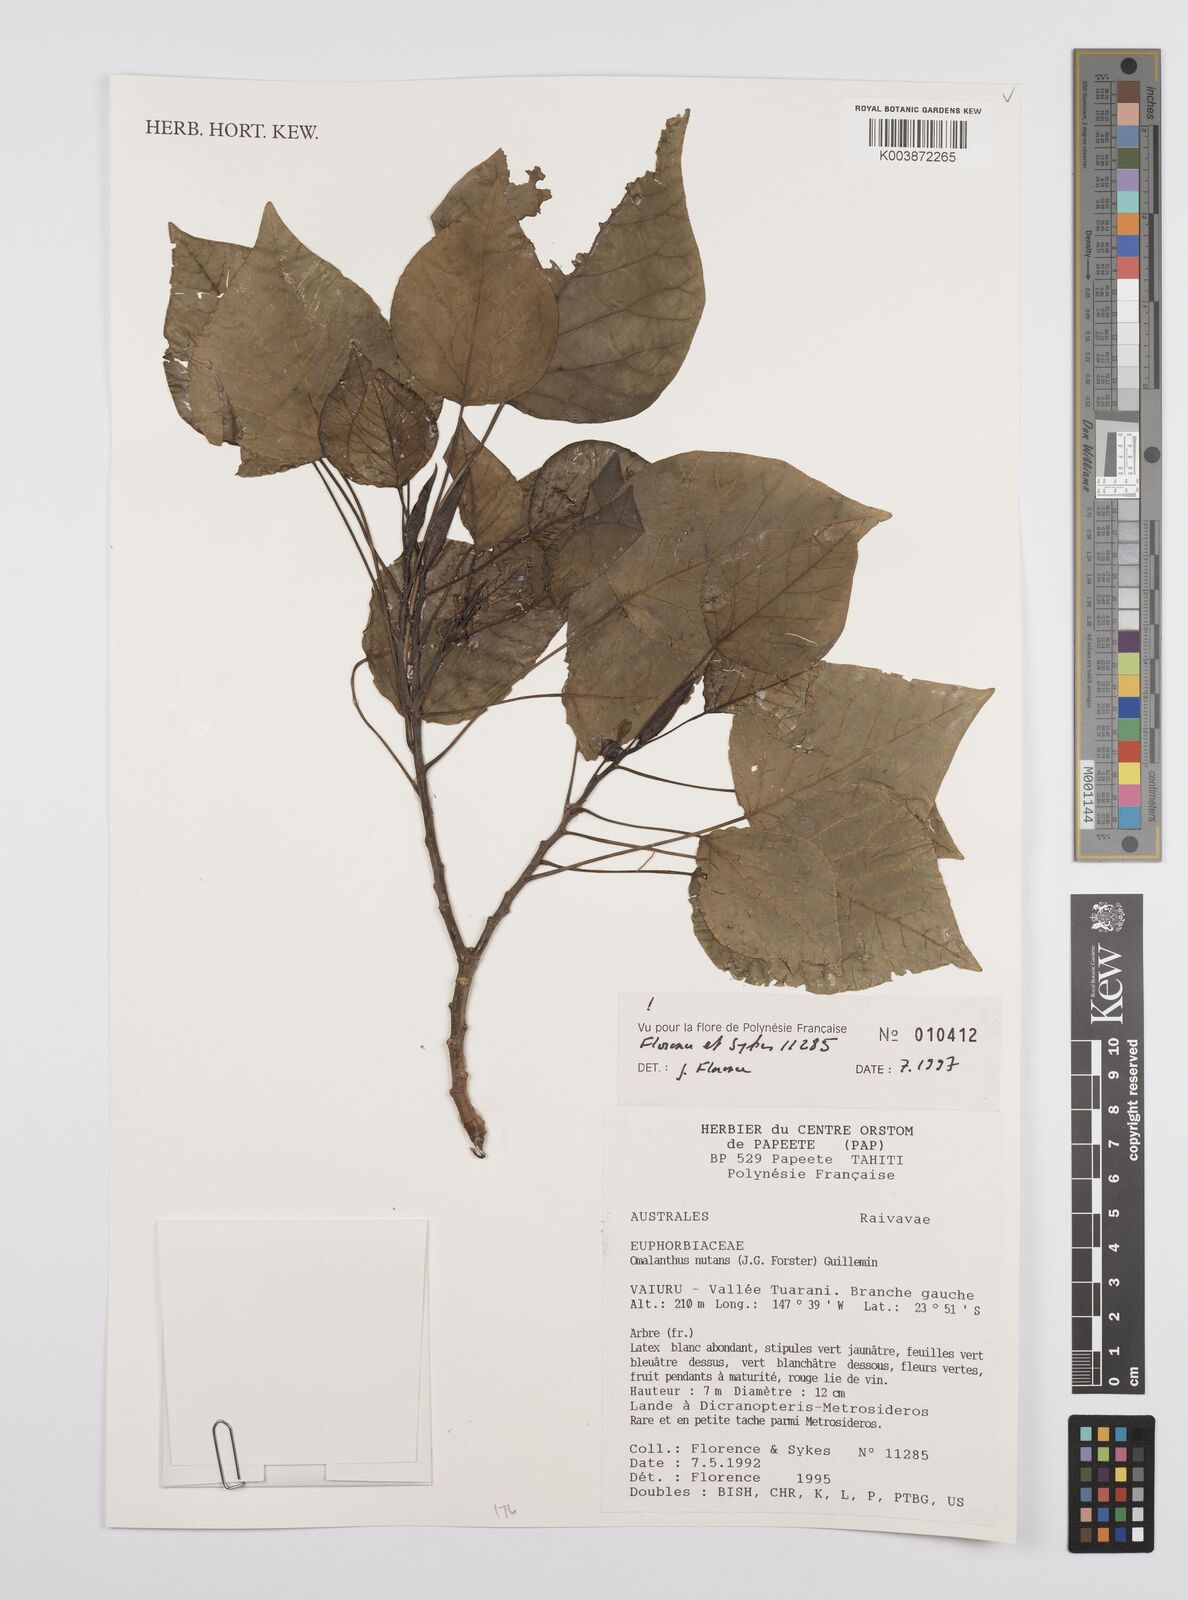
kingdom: Plantae
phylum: Tracheophyta
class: Magnoliopsida
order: Malpighiales
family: Euphorbiaceae
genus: Homalanthus
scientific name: Homalanthus nutans
